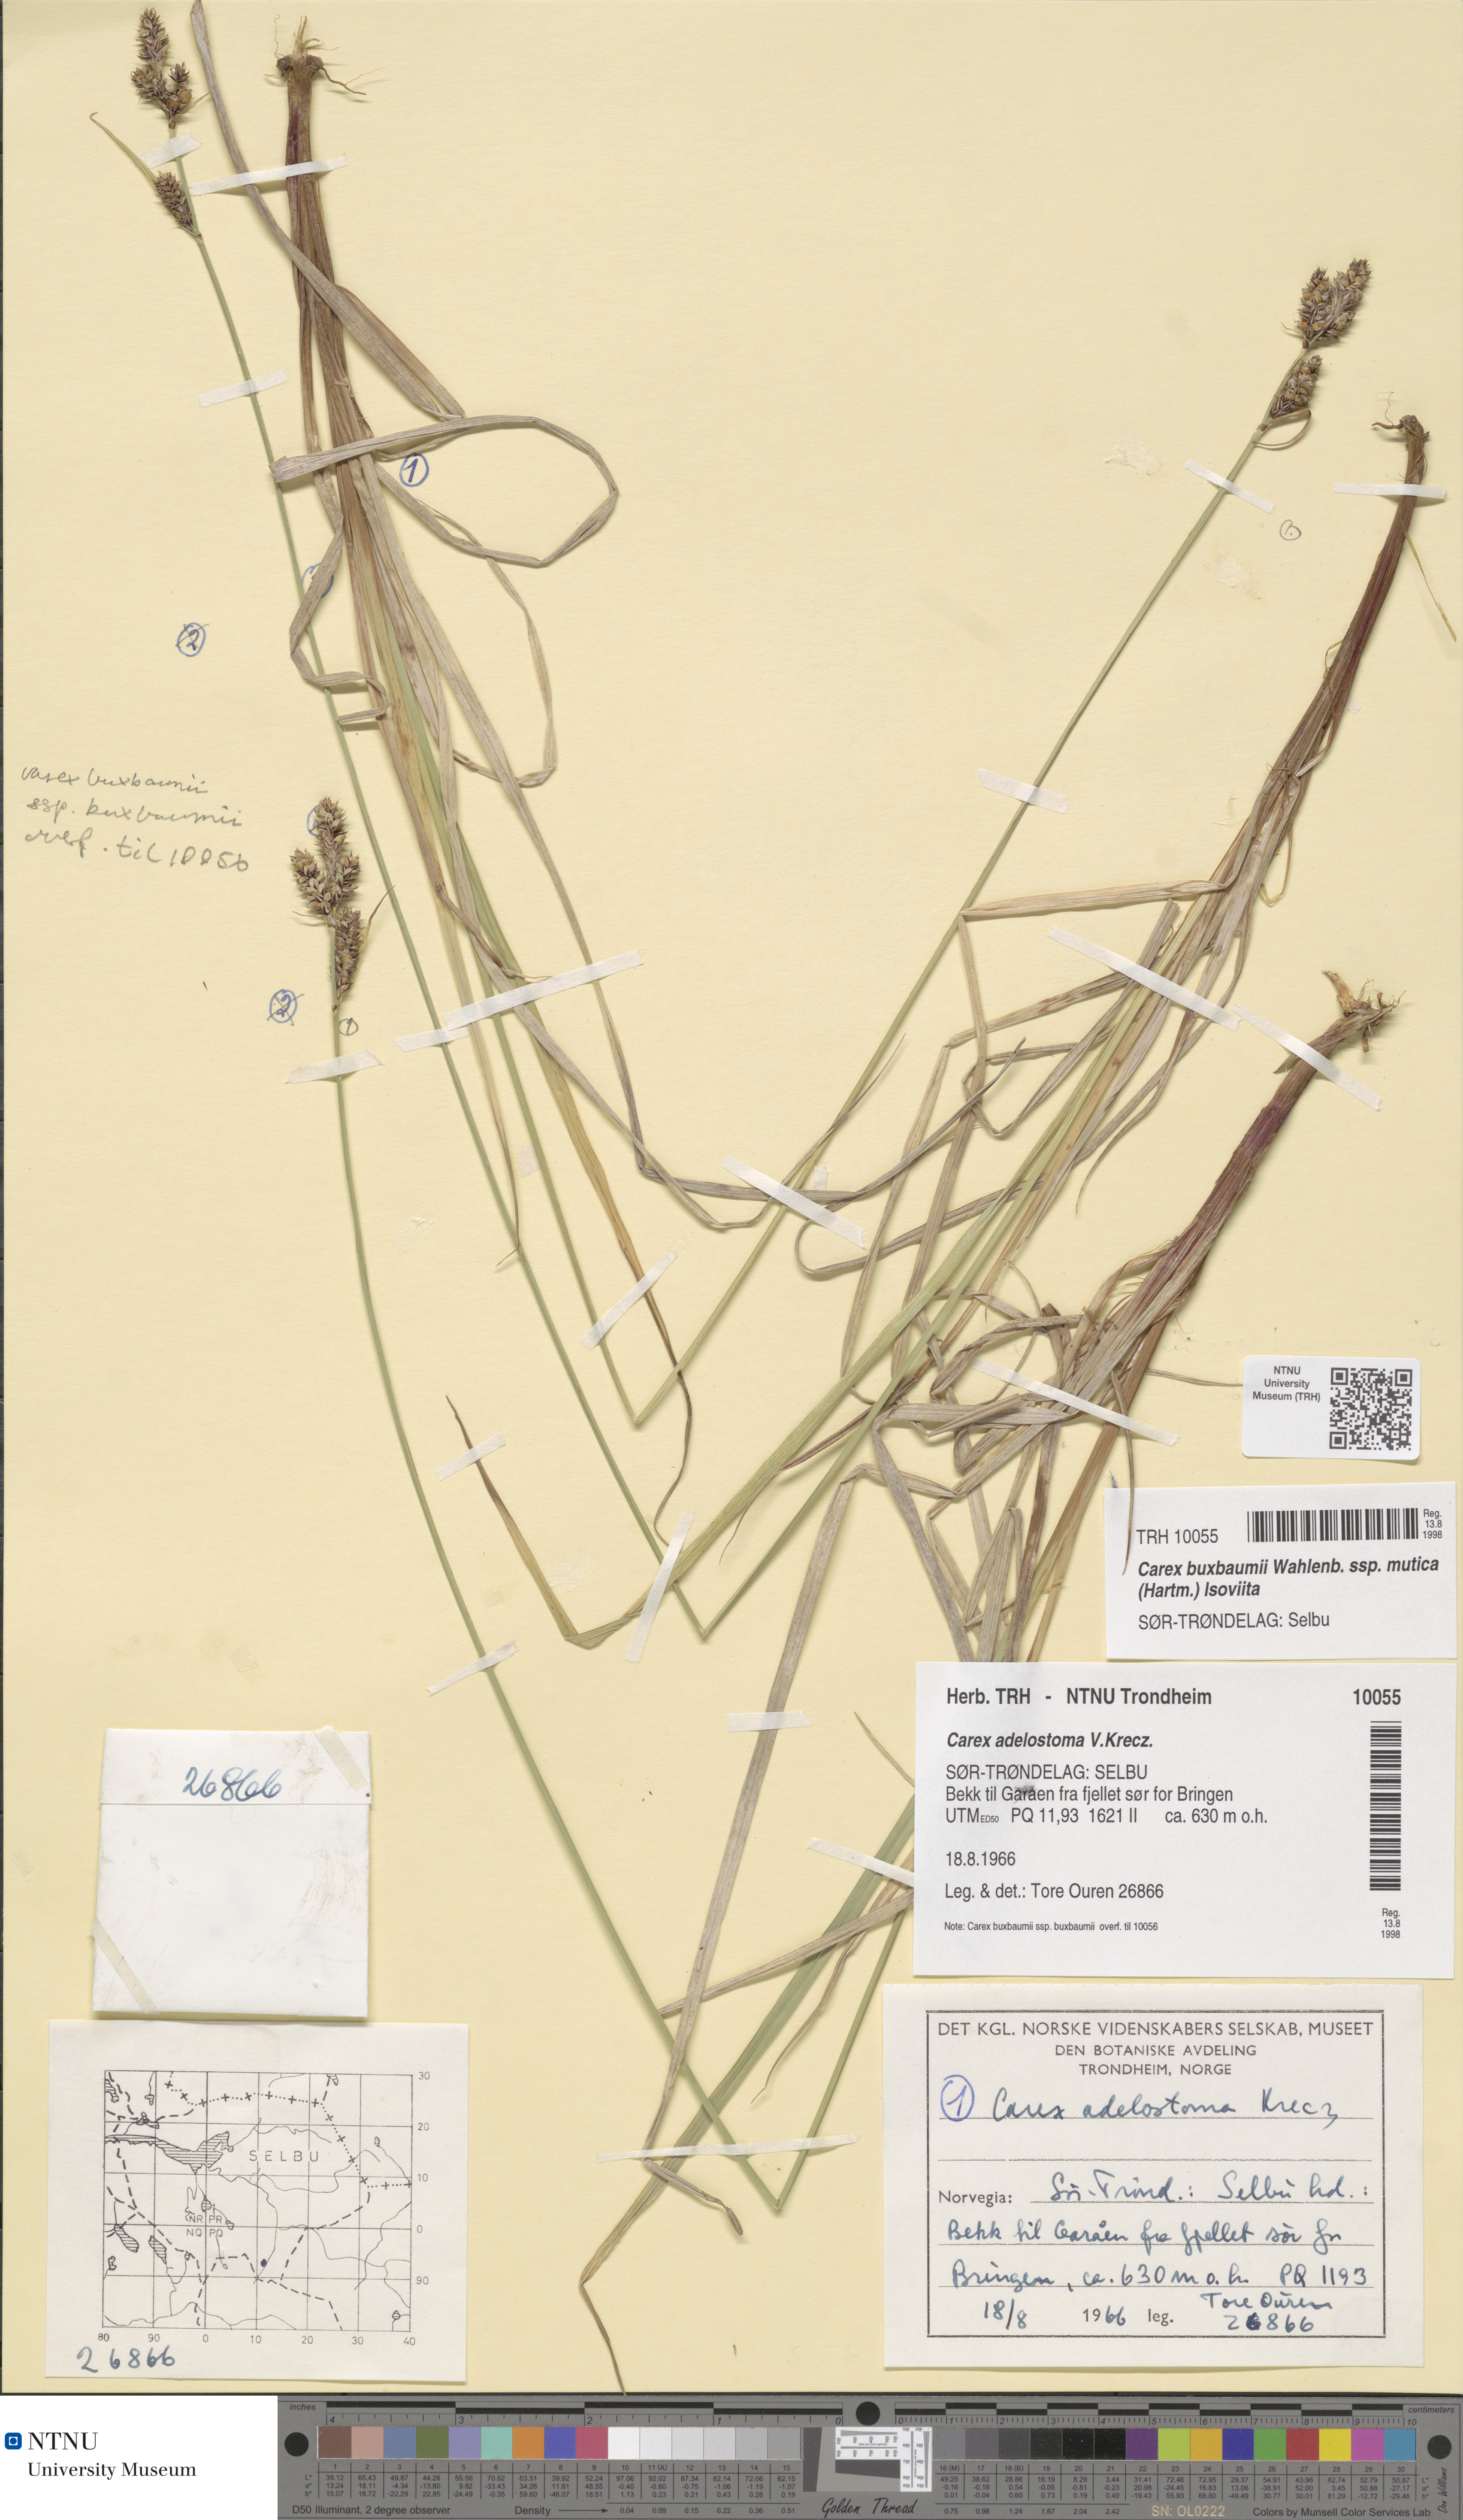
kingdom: Plantae
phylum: Tracheophyta
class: Liliopsida
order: Poales
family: Cyperaceae
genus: Carex
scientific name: Carex adelostoma
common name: Circumpolar sedge
